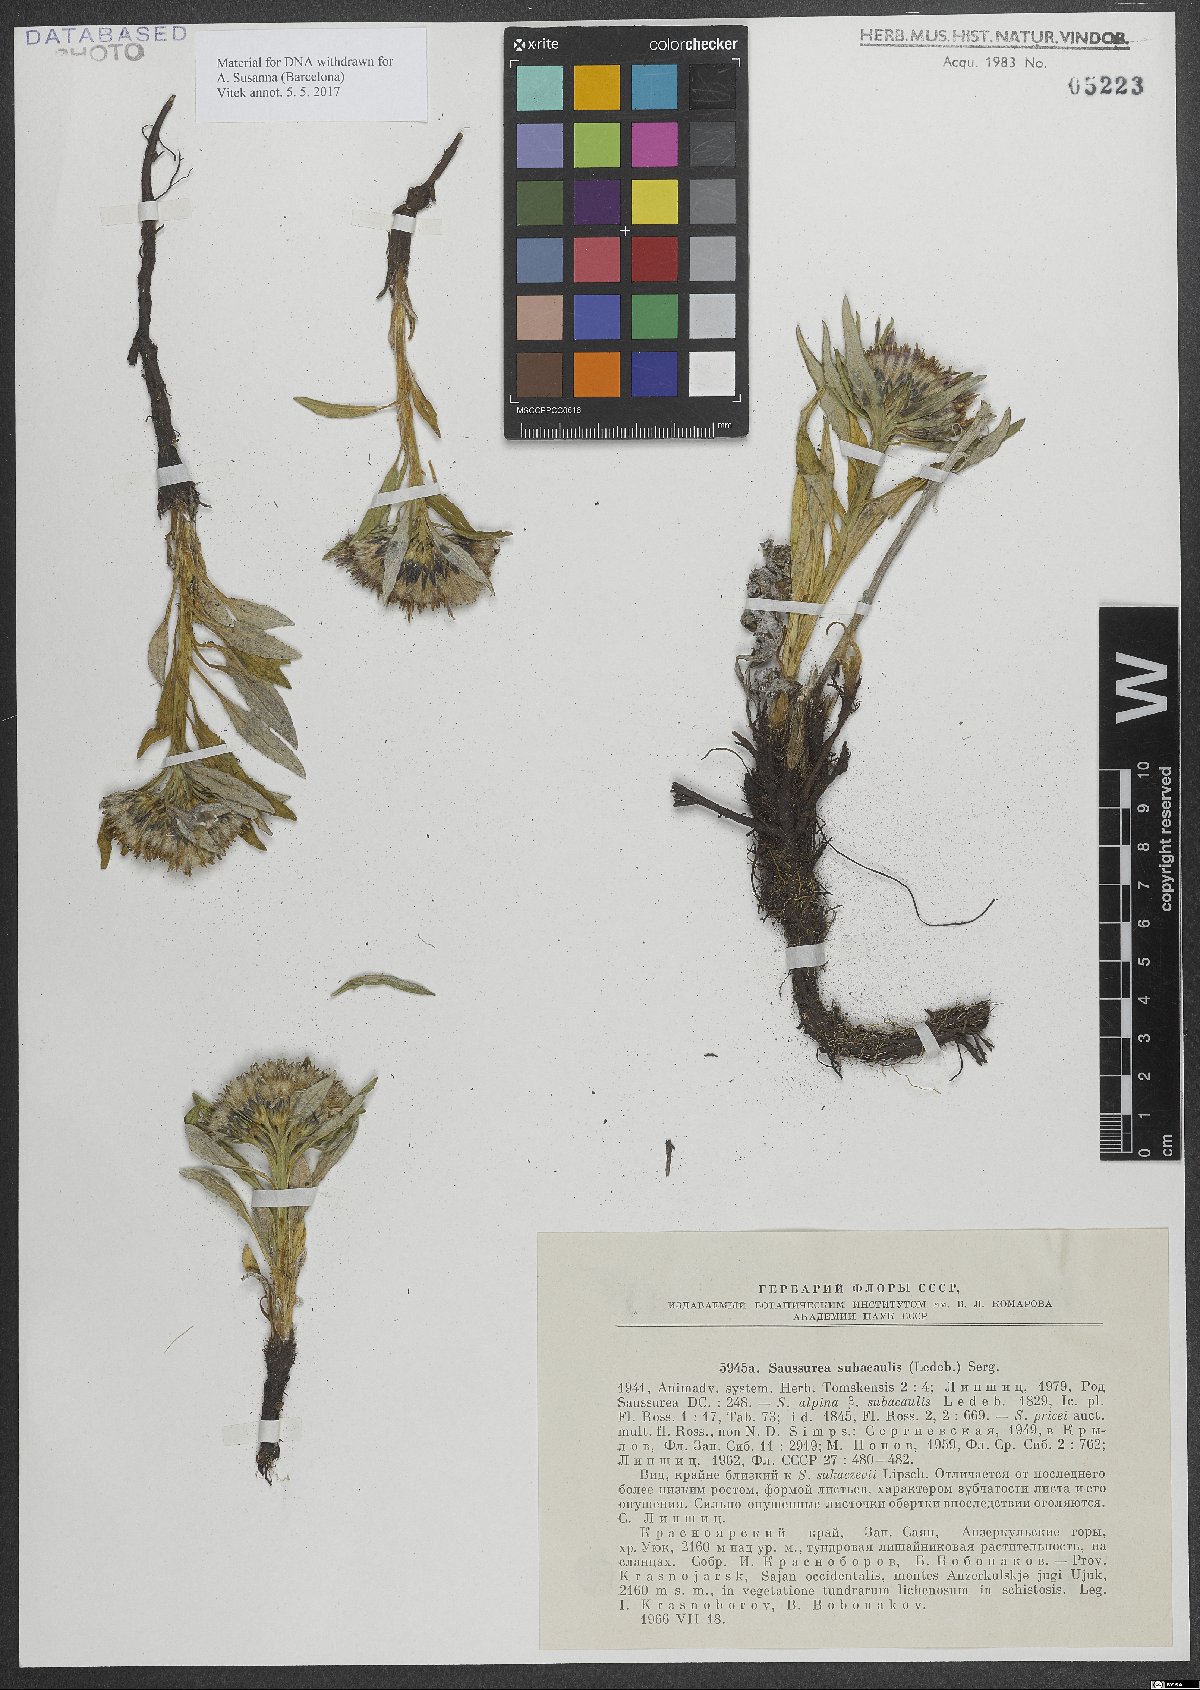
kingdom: Plantae
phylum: Tracheophyta
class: Magnoliopsida
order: Asterales
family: Asteraceae
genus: Saussurea
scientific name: Saussurea subacaulis
